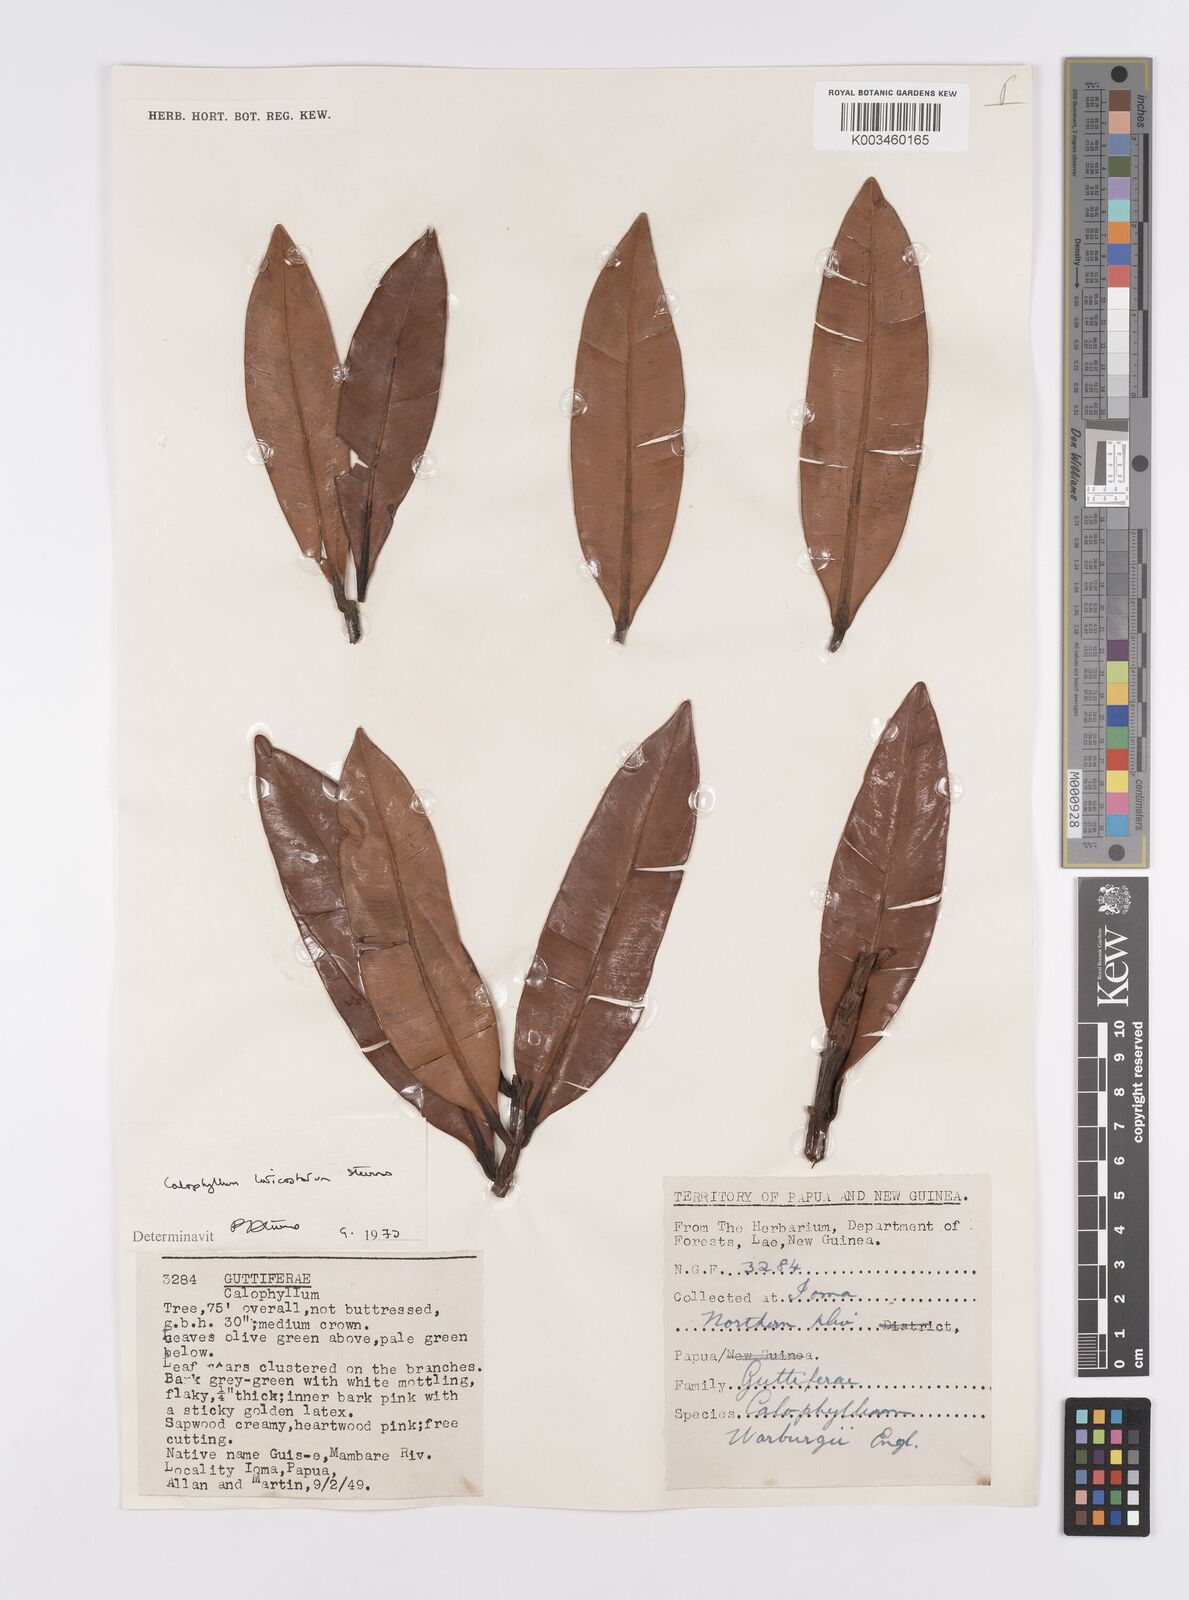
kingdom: Plantae
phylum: Tracheophyta
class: Magnoliopsida
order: Malpighiales
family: Calophyllaceae
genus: Calophyllum
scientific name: Calophyllum laticostatum
